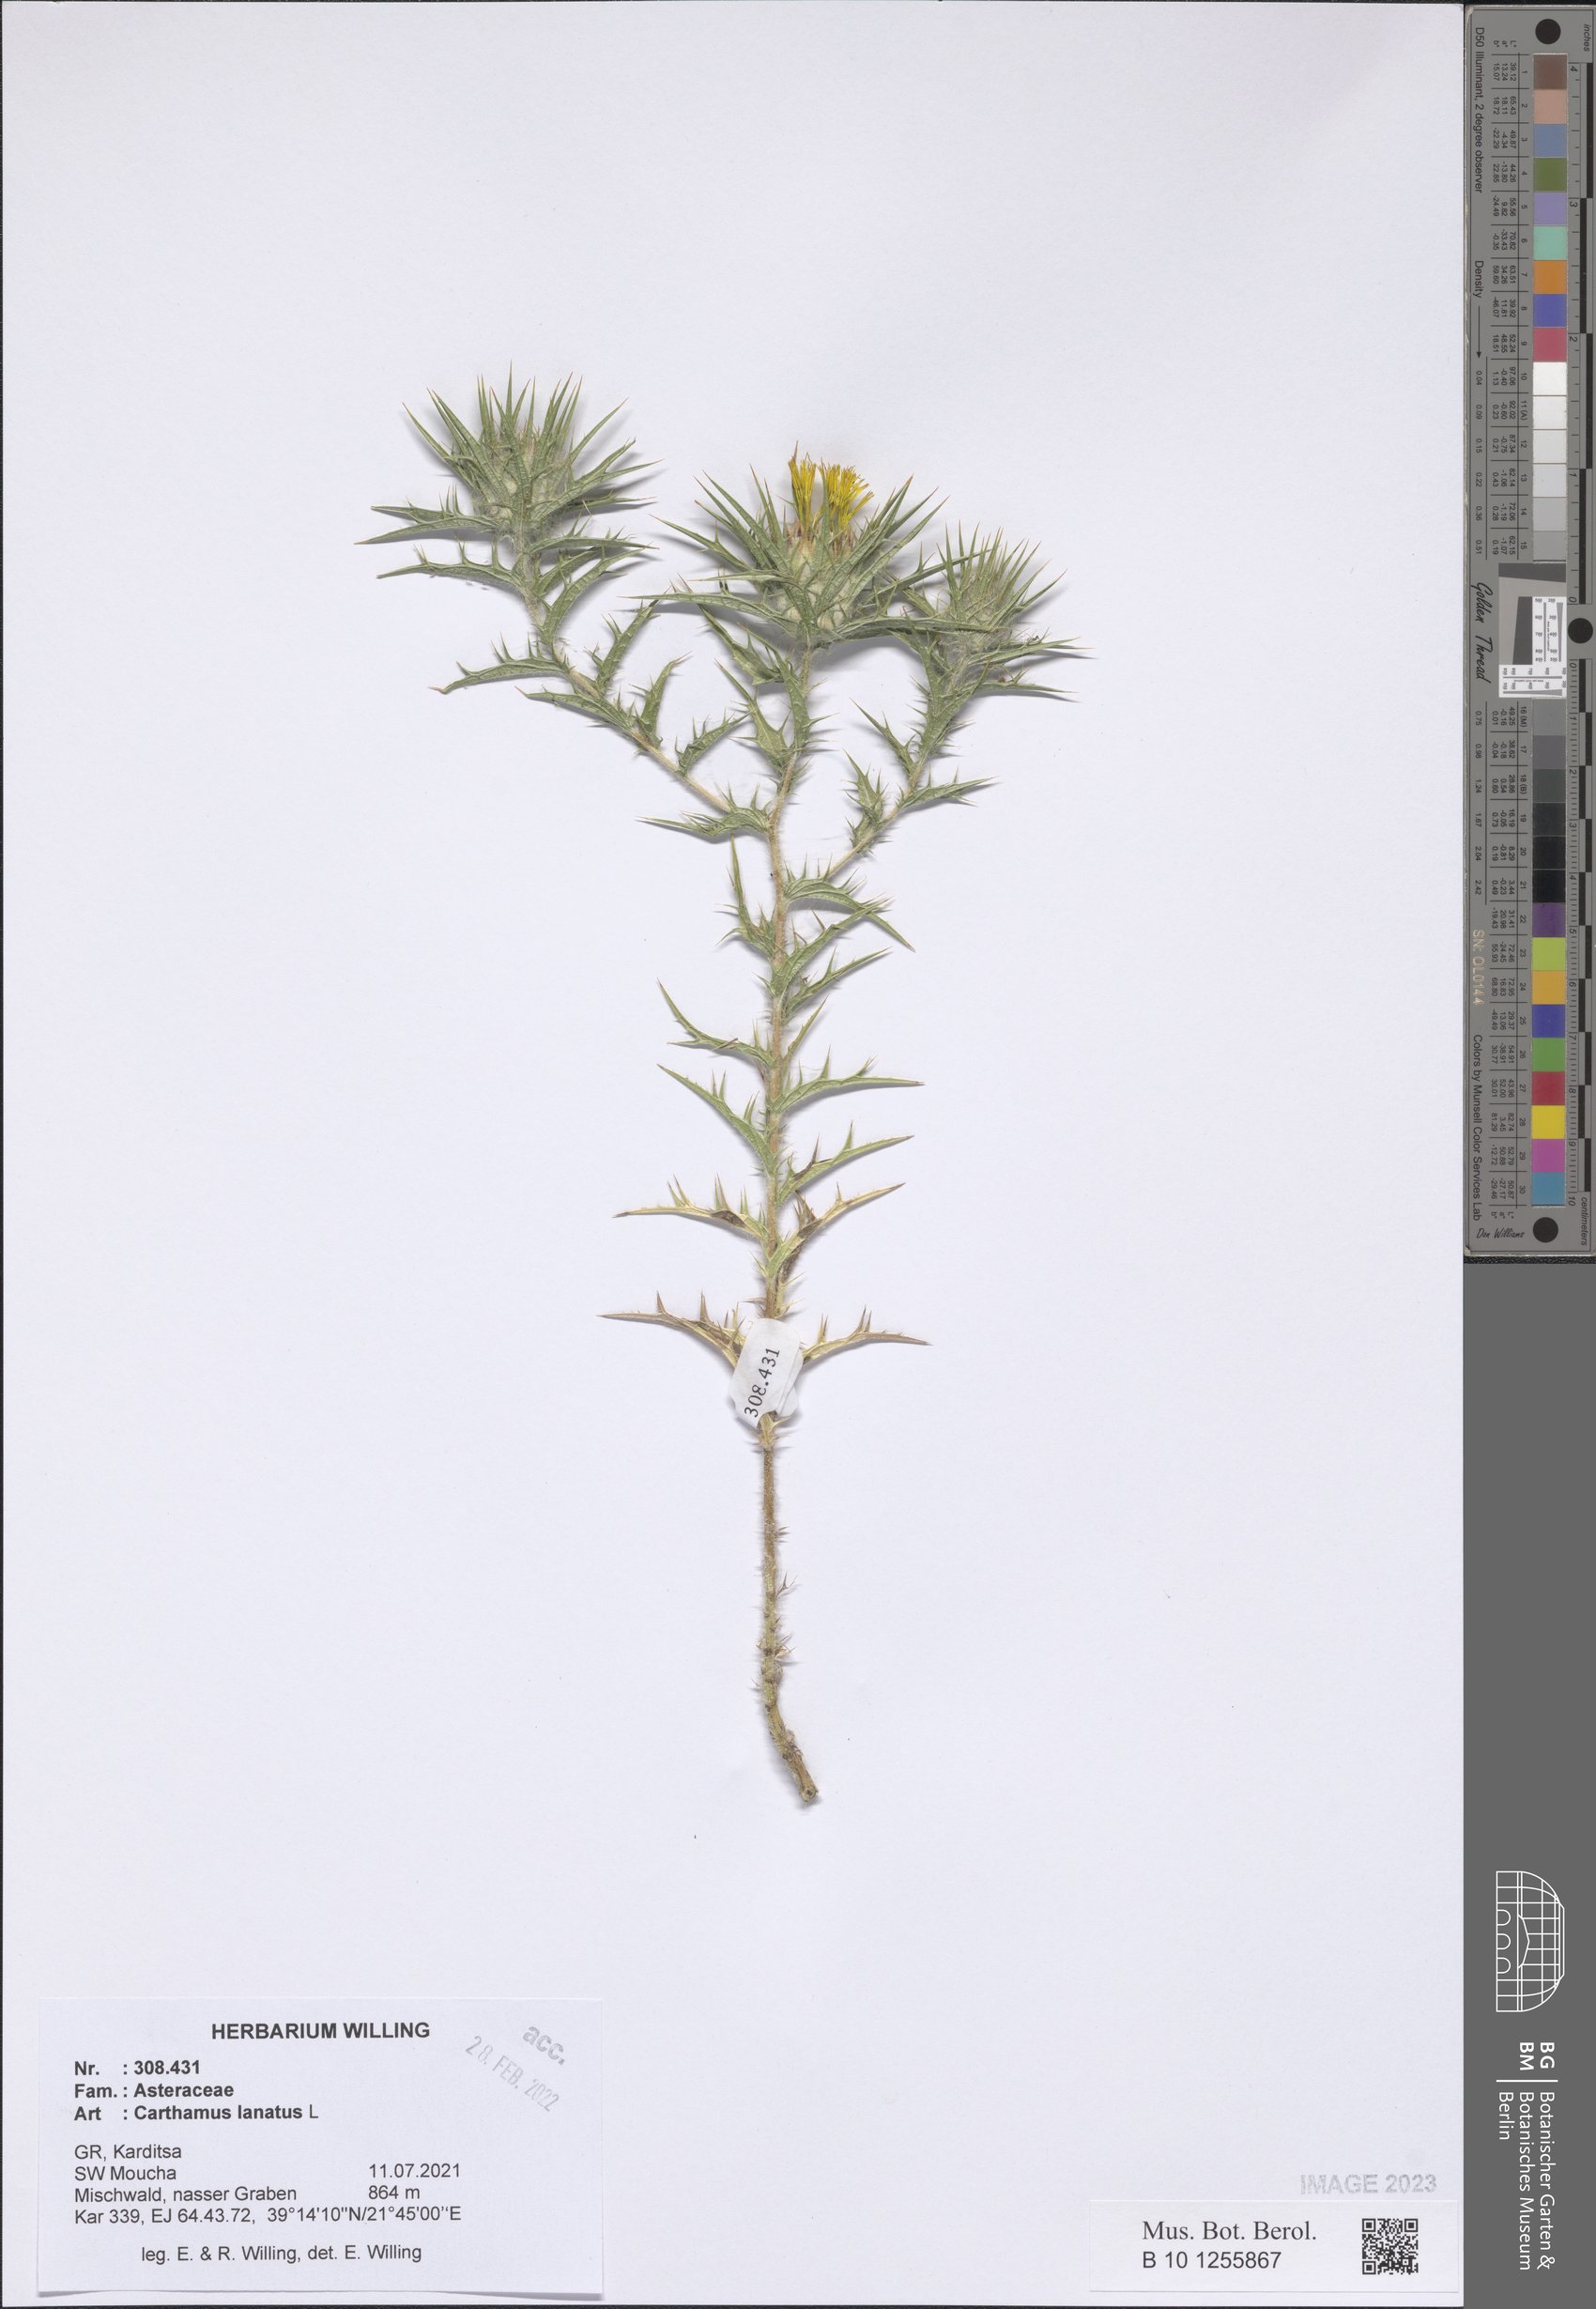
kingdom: Plantae
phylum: Tracheophyta
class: Magnoliopsida
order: Asterales
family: Asteraceae
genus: Carthamus
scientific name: Carthamus lanatus
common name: Downy safflower
